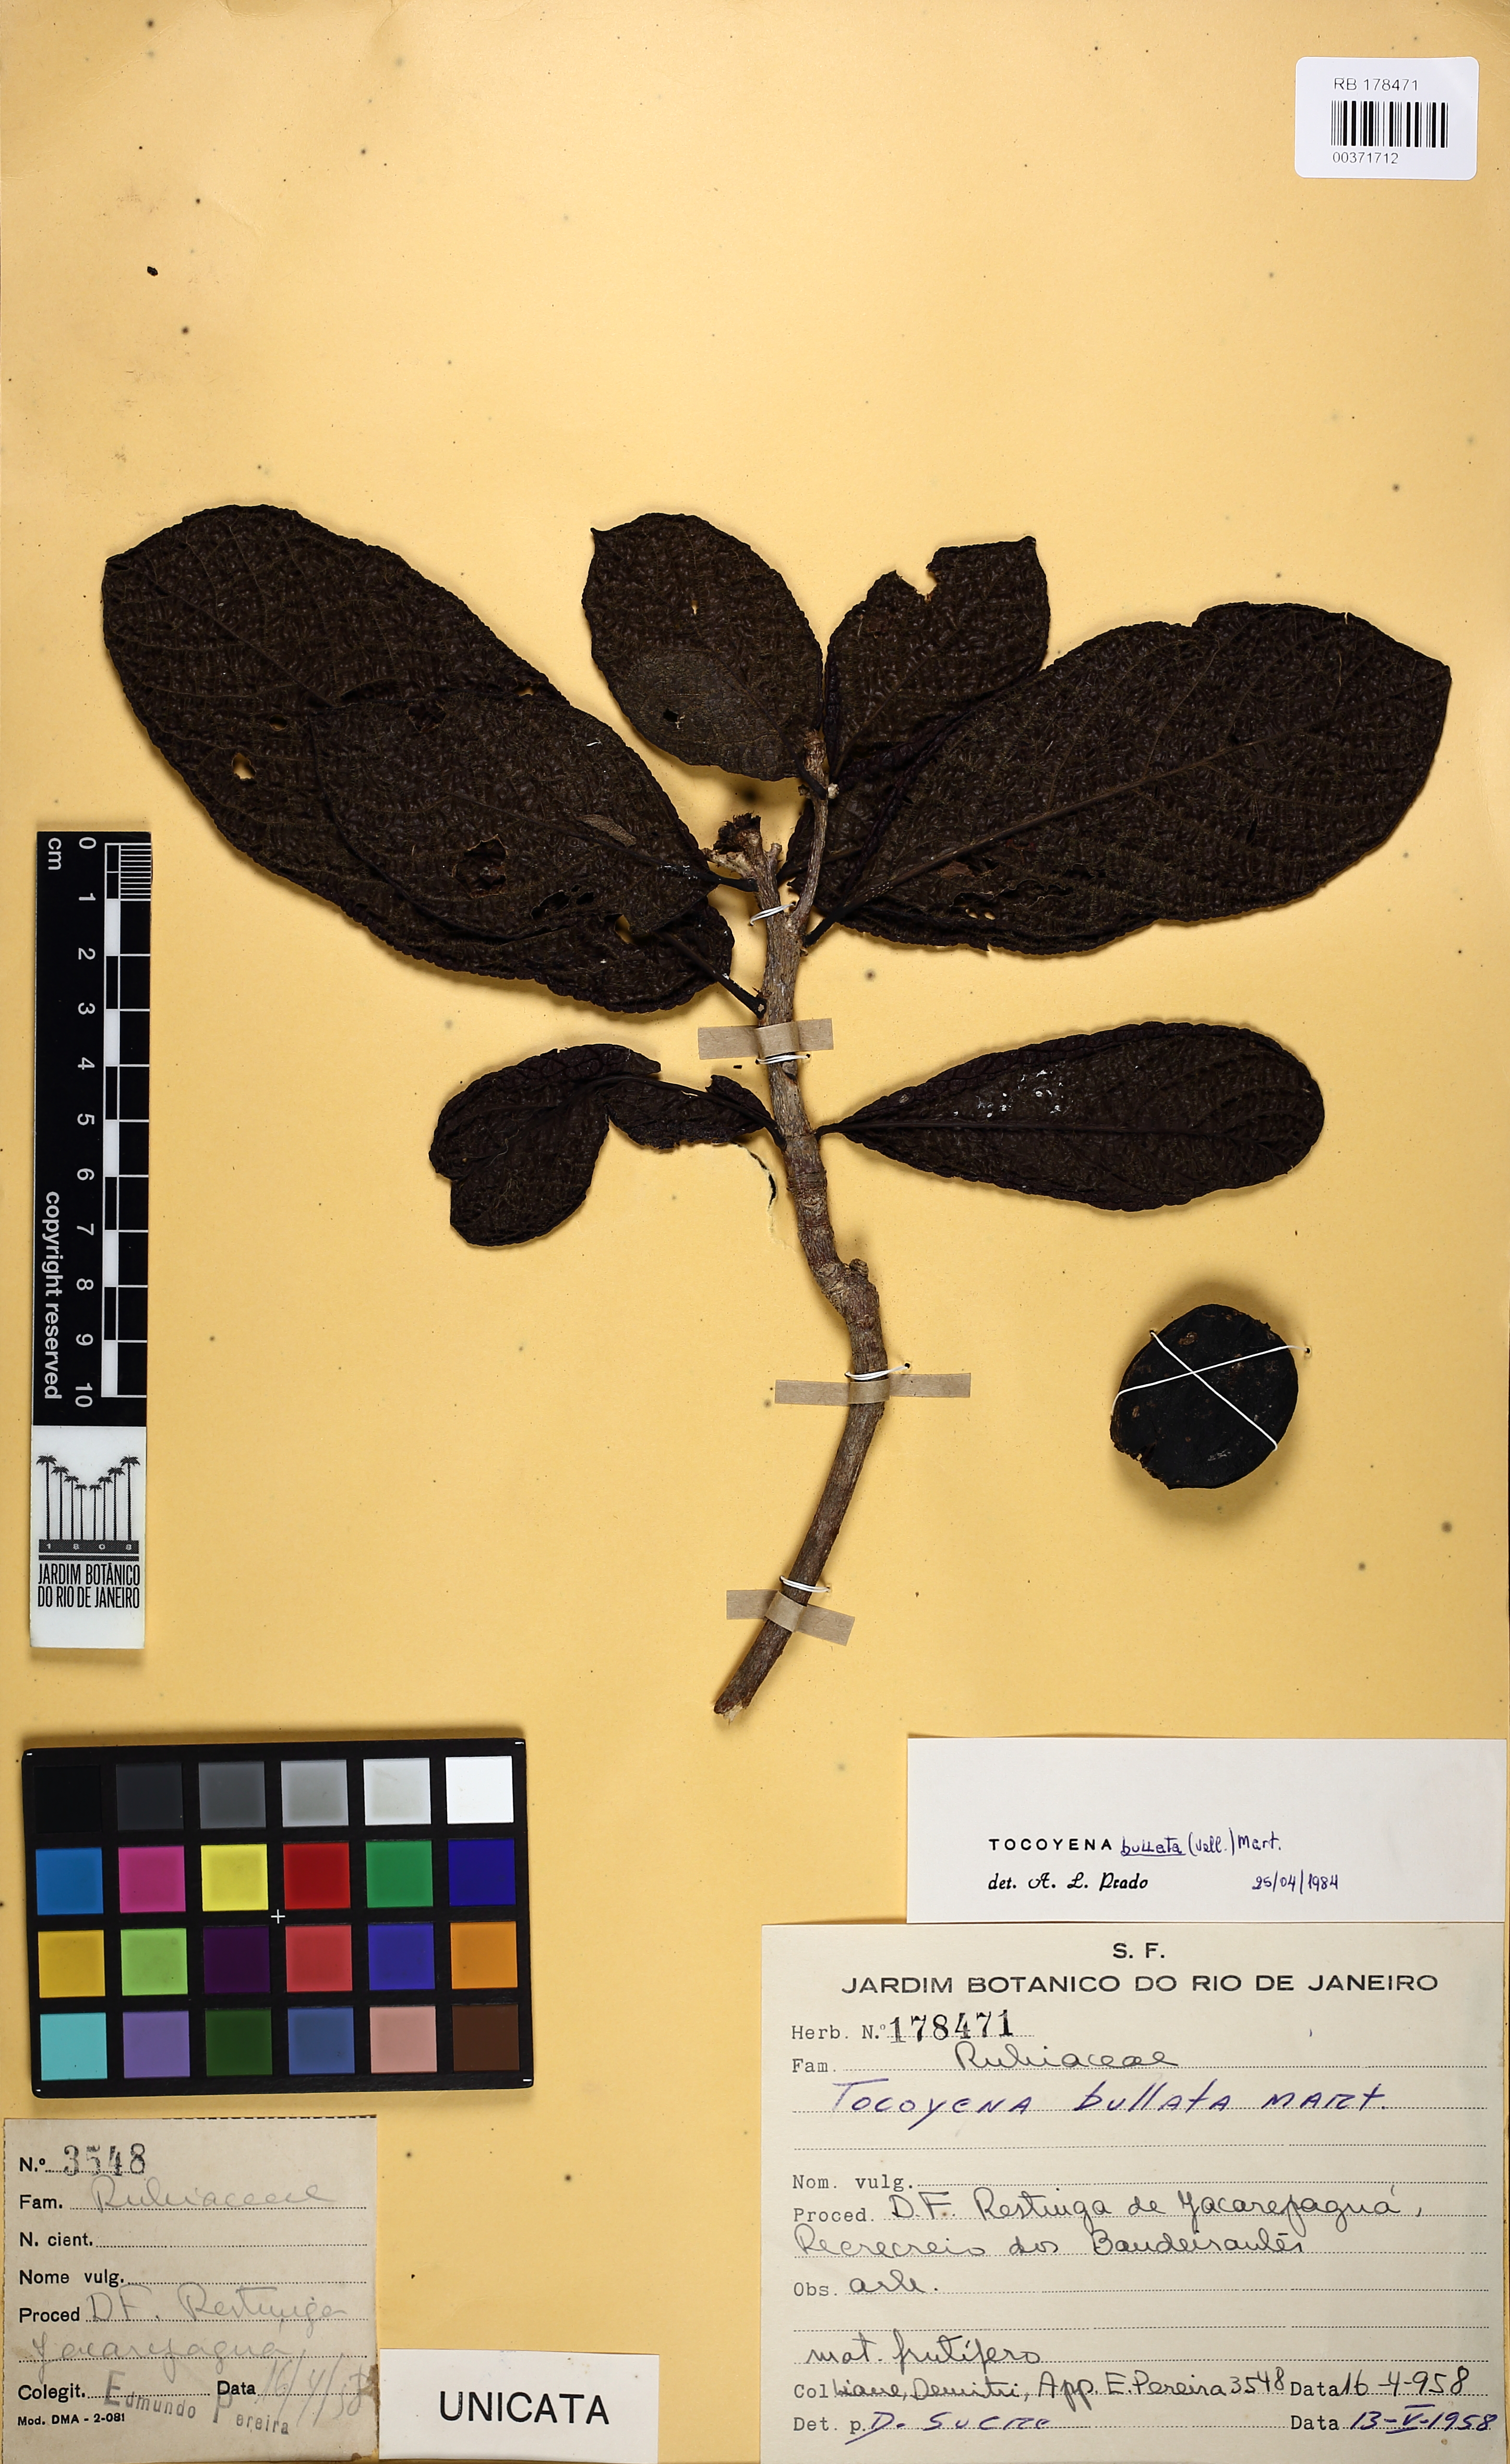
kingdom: Plantae
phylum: Tracheophyta
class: Magnoliopsida
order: Gentianales
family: Rubiaceae
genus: Tocoyena
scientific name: Tocoyena bullata
